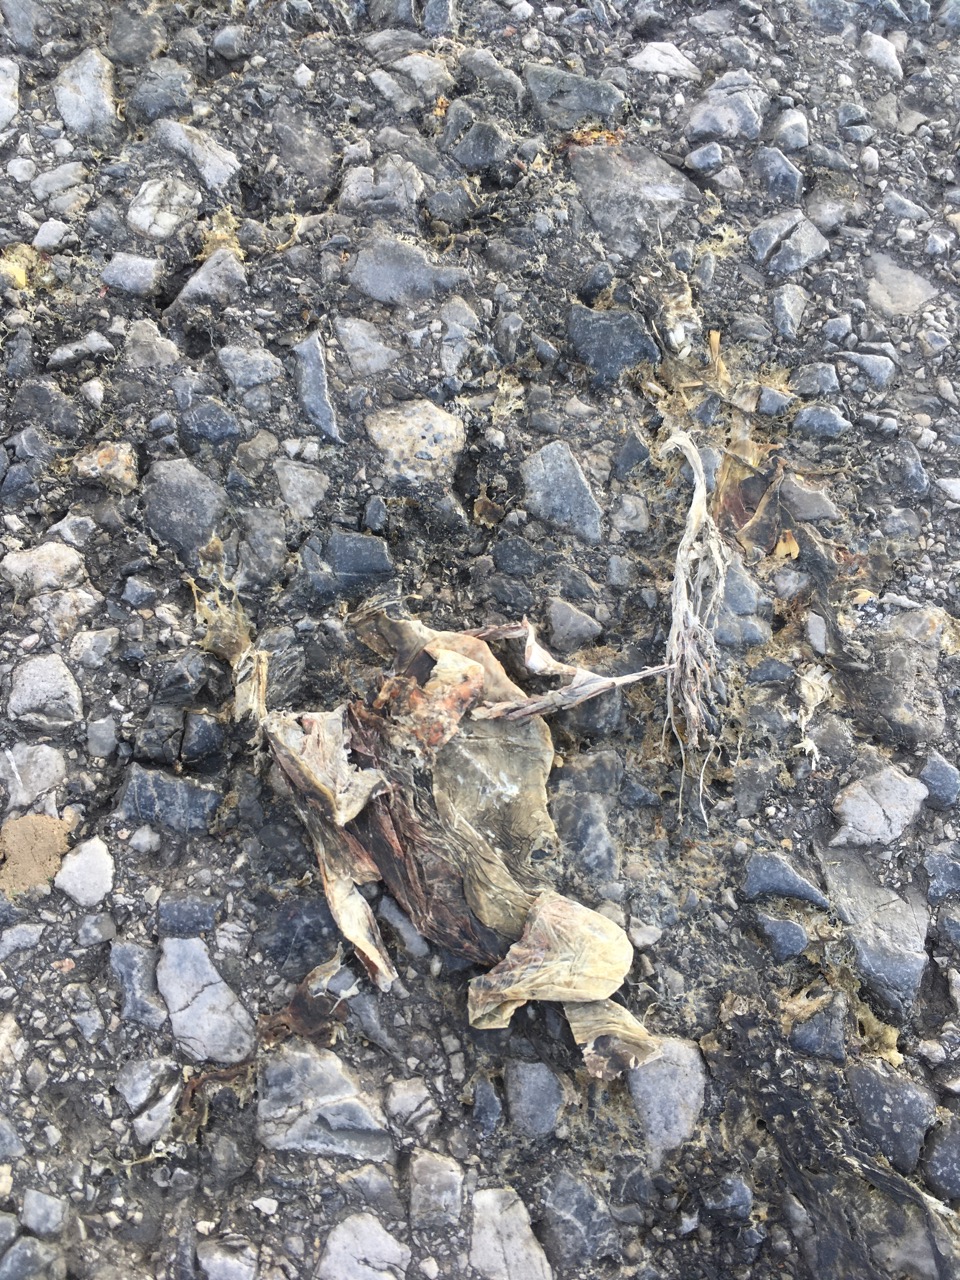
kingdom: Animalia
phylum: Chordata
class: Amphibia
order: Anura
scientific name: Anura
